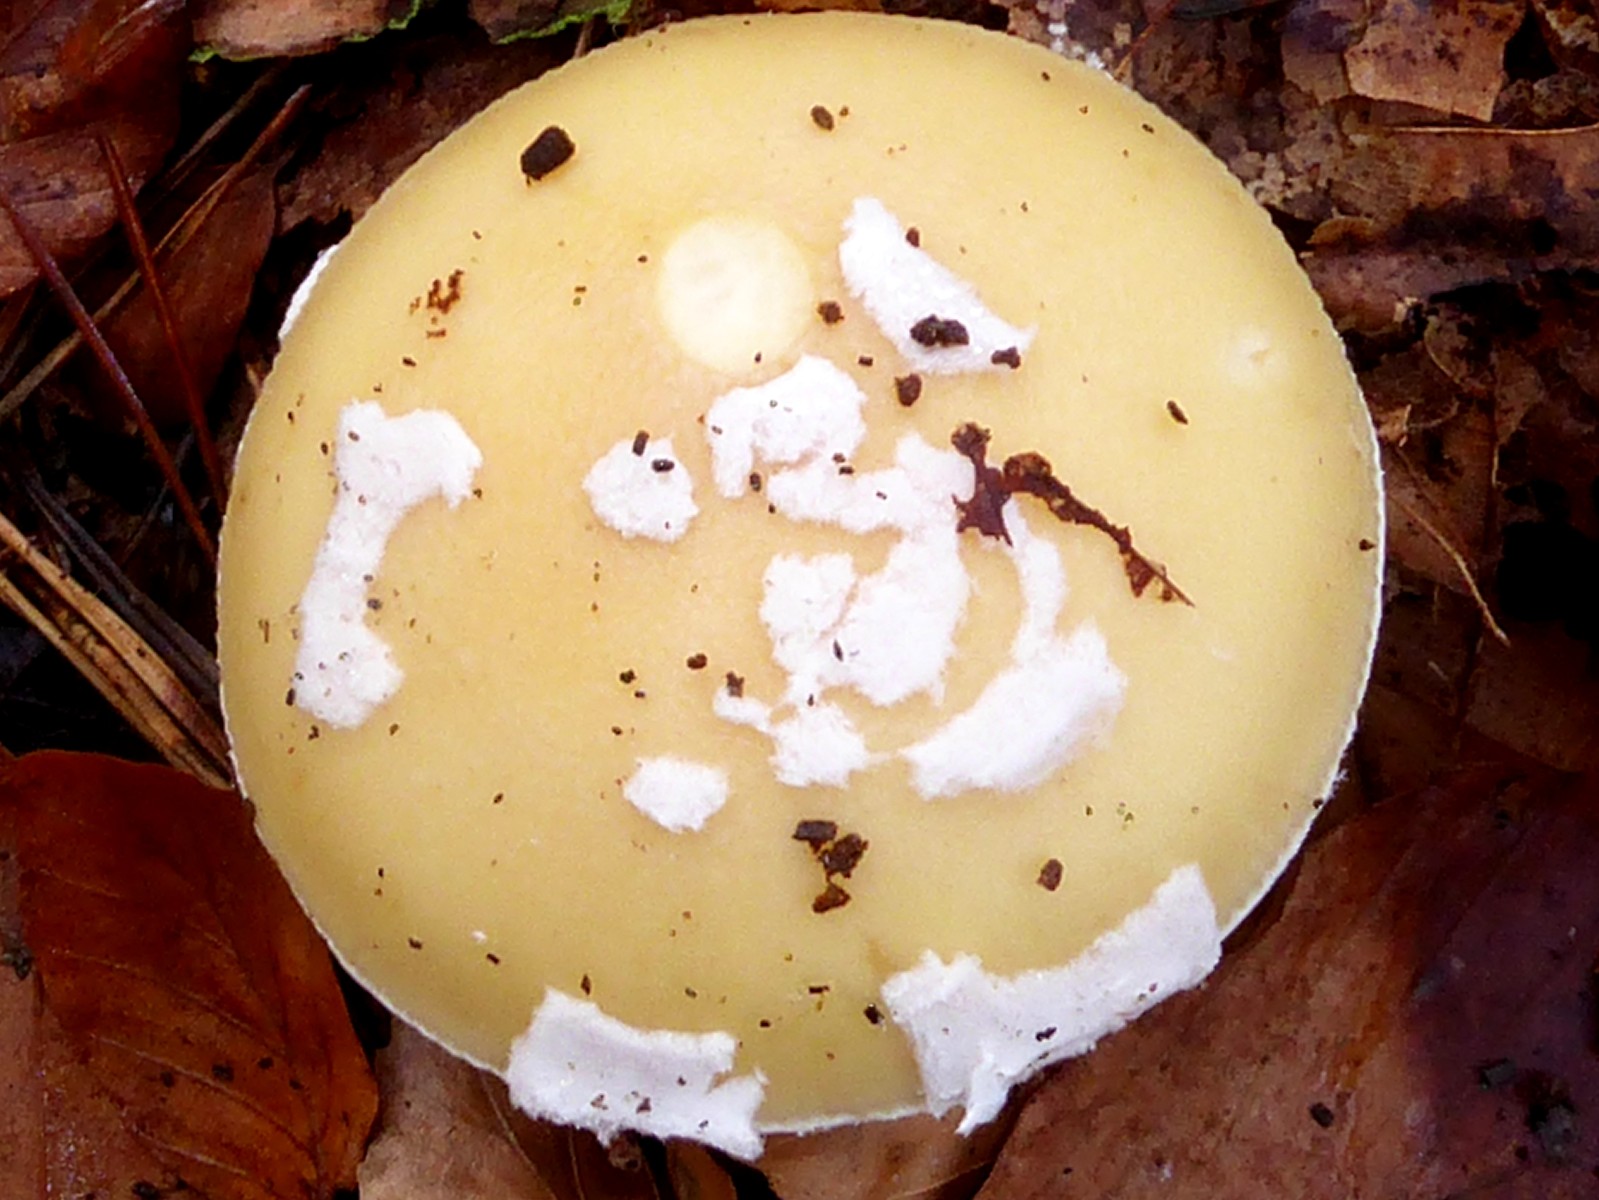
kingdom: Fungi
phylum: Basidiomycota
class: Agaricomycetes
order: Agaricales
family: Amanitaceae
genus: Amanita
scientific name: Amanita gemmata
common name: okkergul fluesvamp
